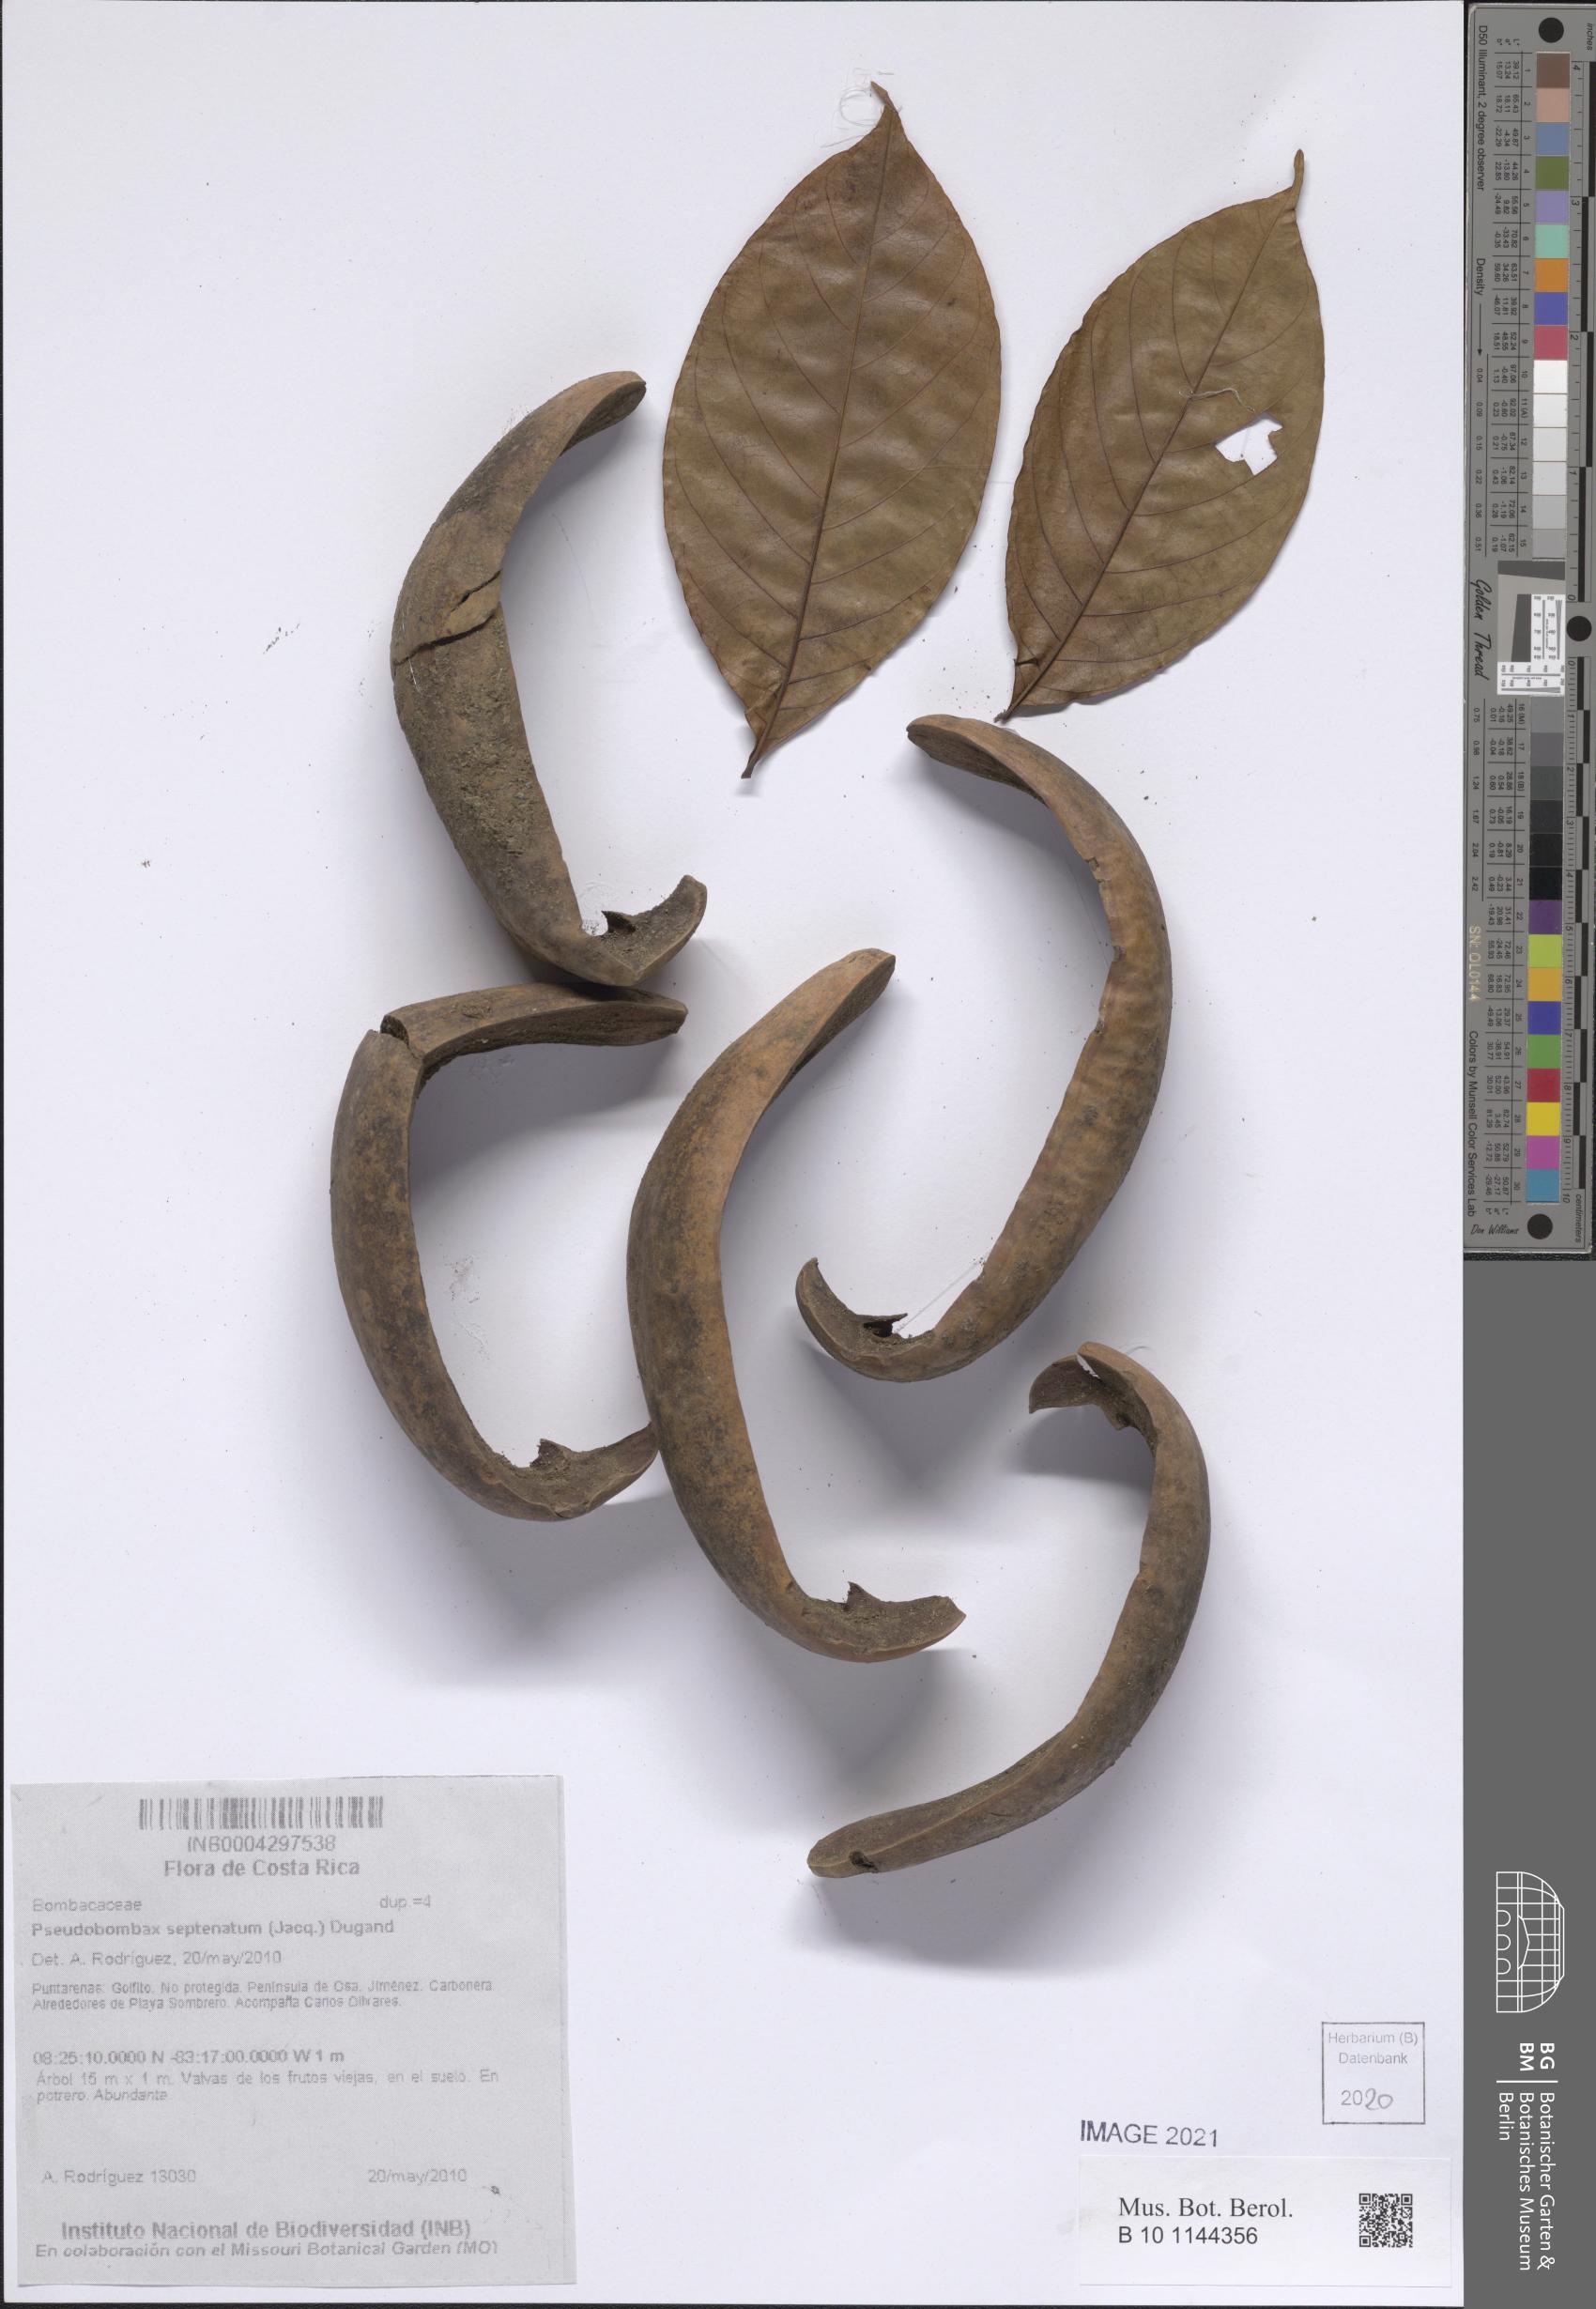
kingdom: Plantae
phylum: Tracheophyta
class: Magnoliopsida
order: Malvales
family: Malvaceae
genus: Pseudobombax
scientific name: Pseudobombax septenatum
